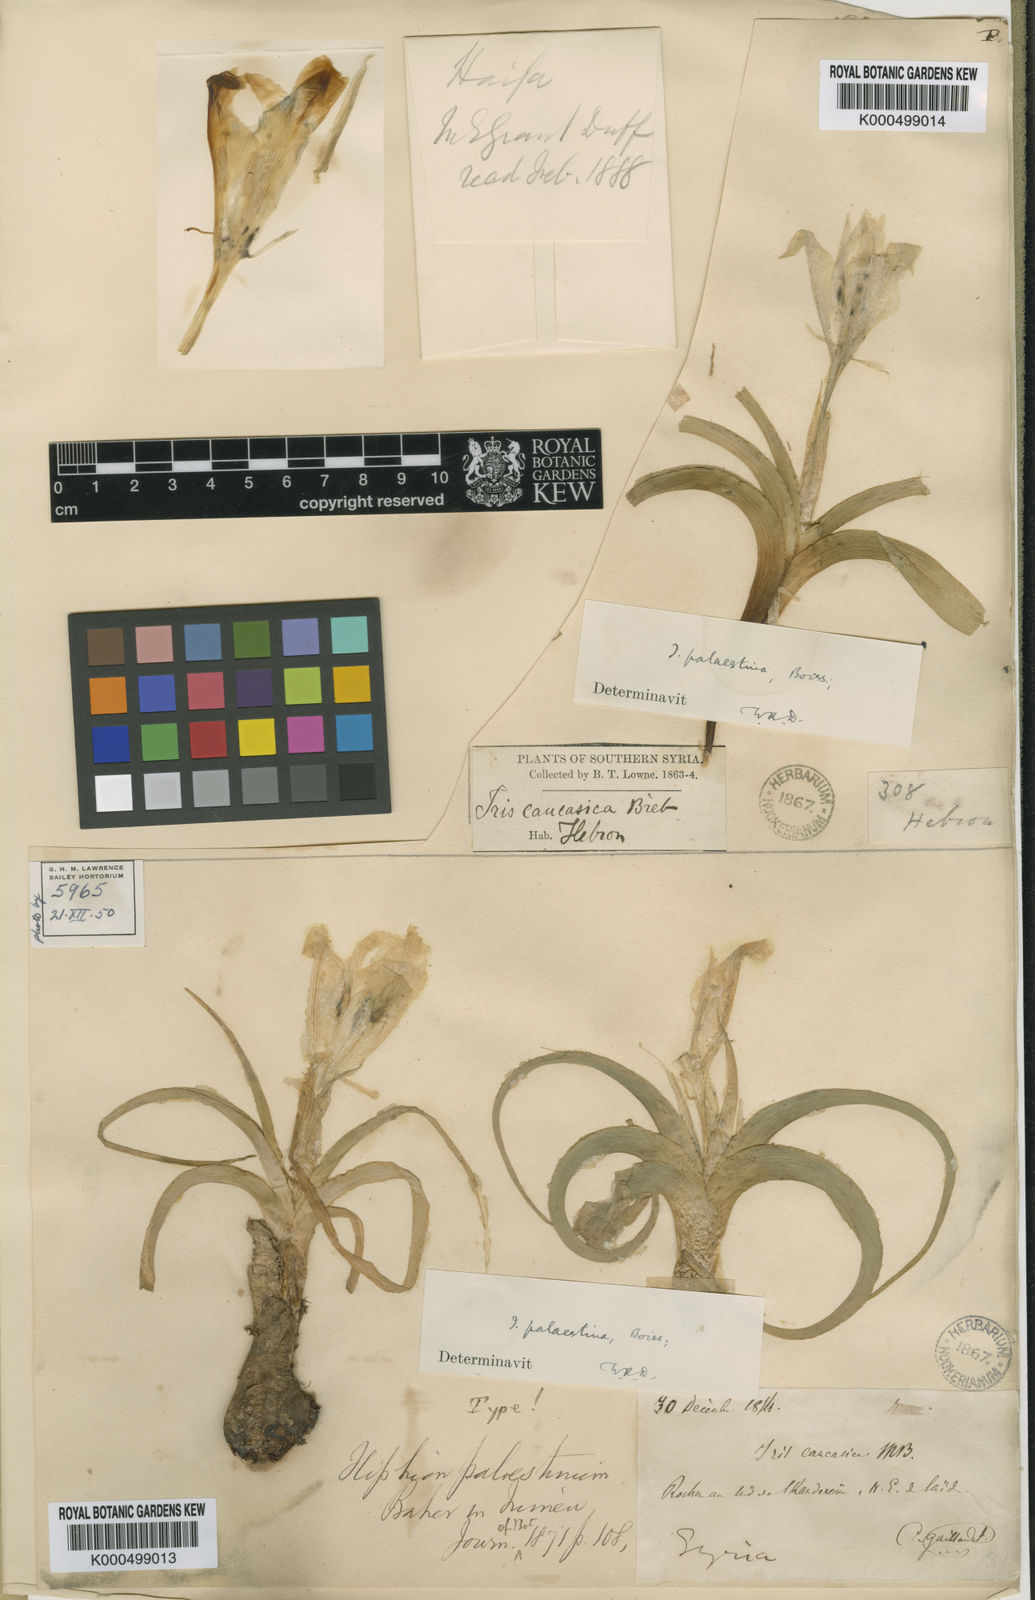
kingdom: Plantae
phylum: Tracheophyta
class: Liliopsida
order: Asparagales
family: Iridaceae
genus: Iris
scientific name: Iris
